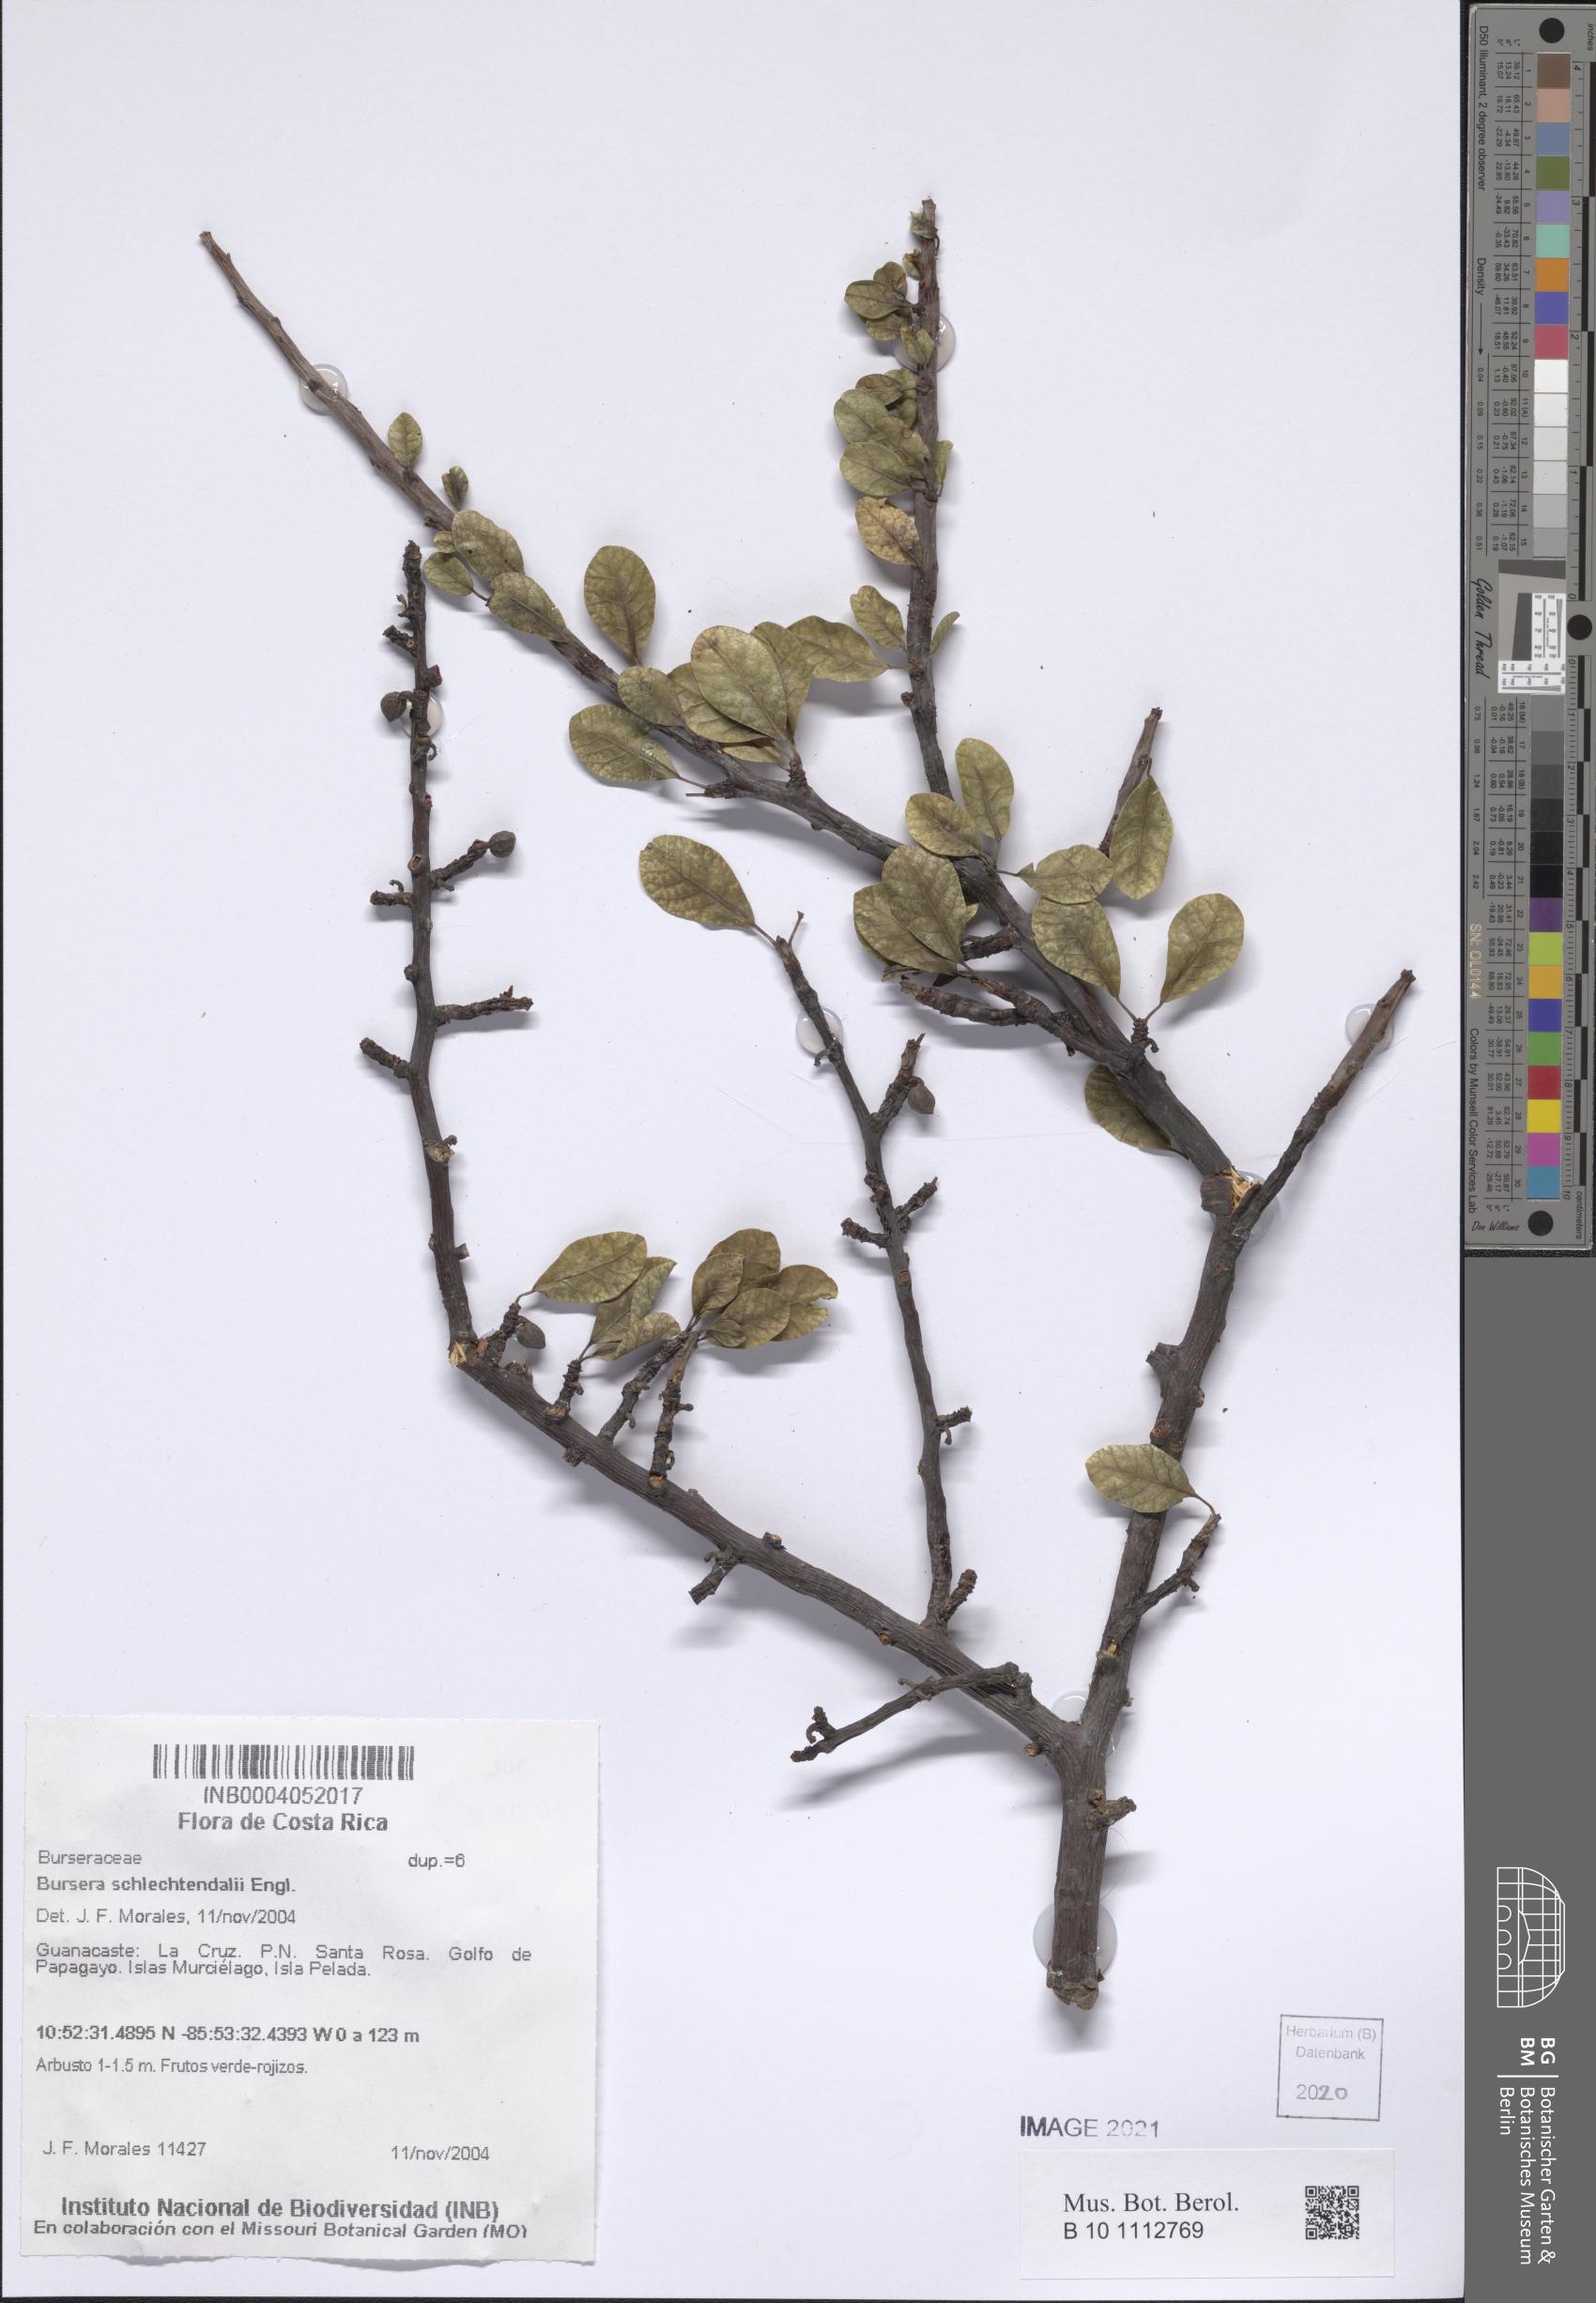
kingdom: Plantae
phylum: Tracheophyta
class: Magnoliopsida
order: Sapindales
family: Burseraceae
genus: Bursera
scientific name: Bursera schlechtendalii
